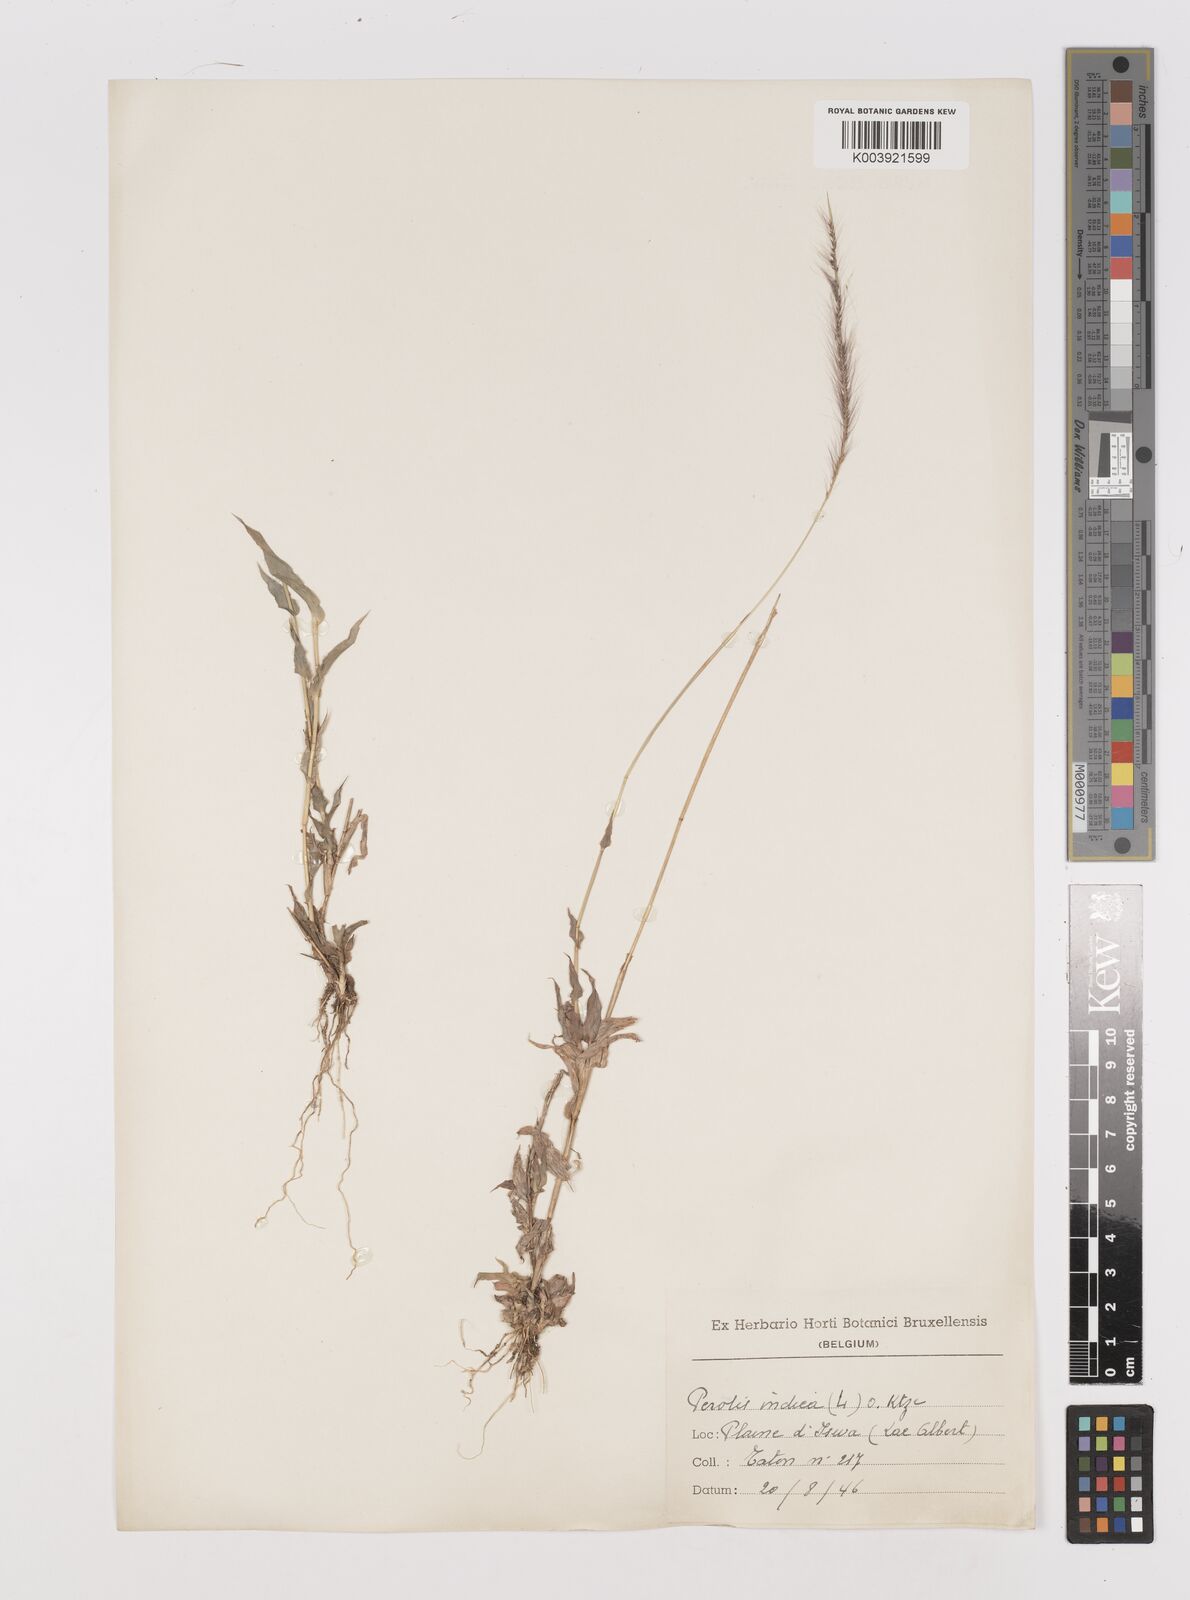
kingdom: Plantae
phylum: Tracheophyta
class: Liliopsida
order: Poales
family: Poaceae
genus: Perotis
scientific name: Perotis patens
